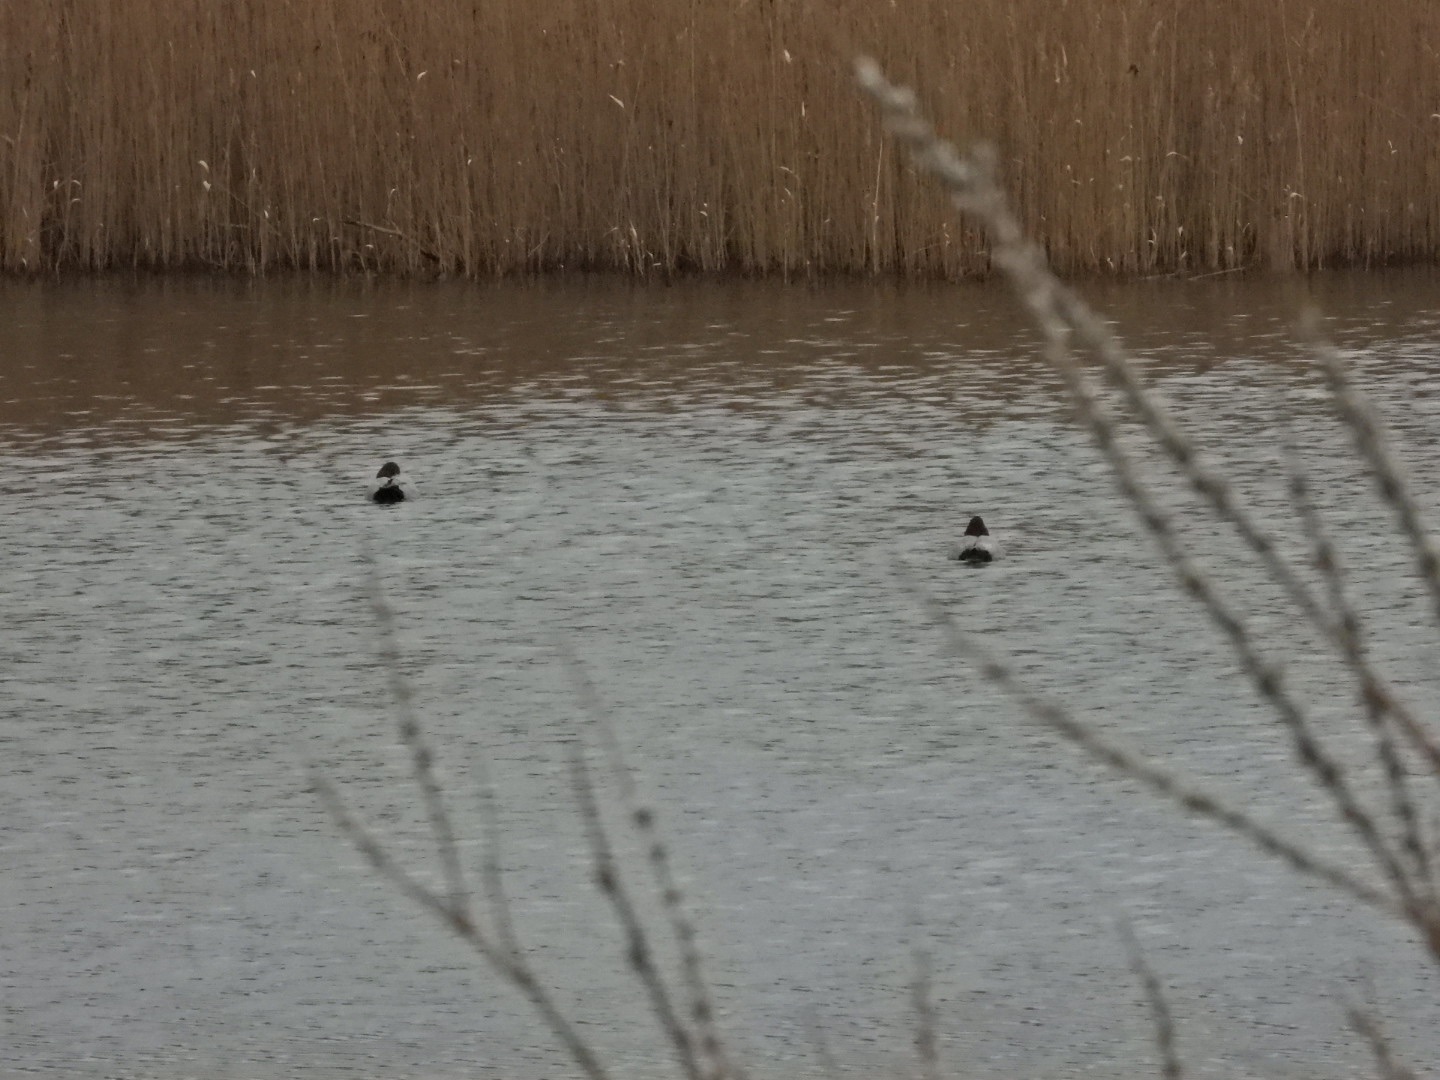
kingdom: Animalia
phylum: Chordata
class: Aves
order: Anseriformes
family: Anatidae
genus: Aythya
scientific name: Aythya ferina
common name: Taffeland
